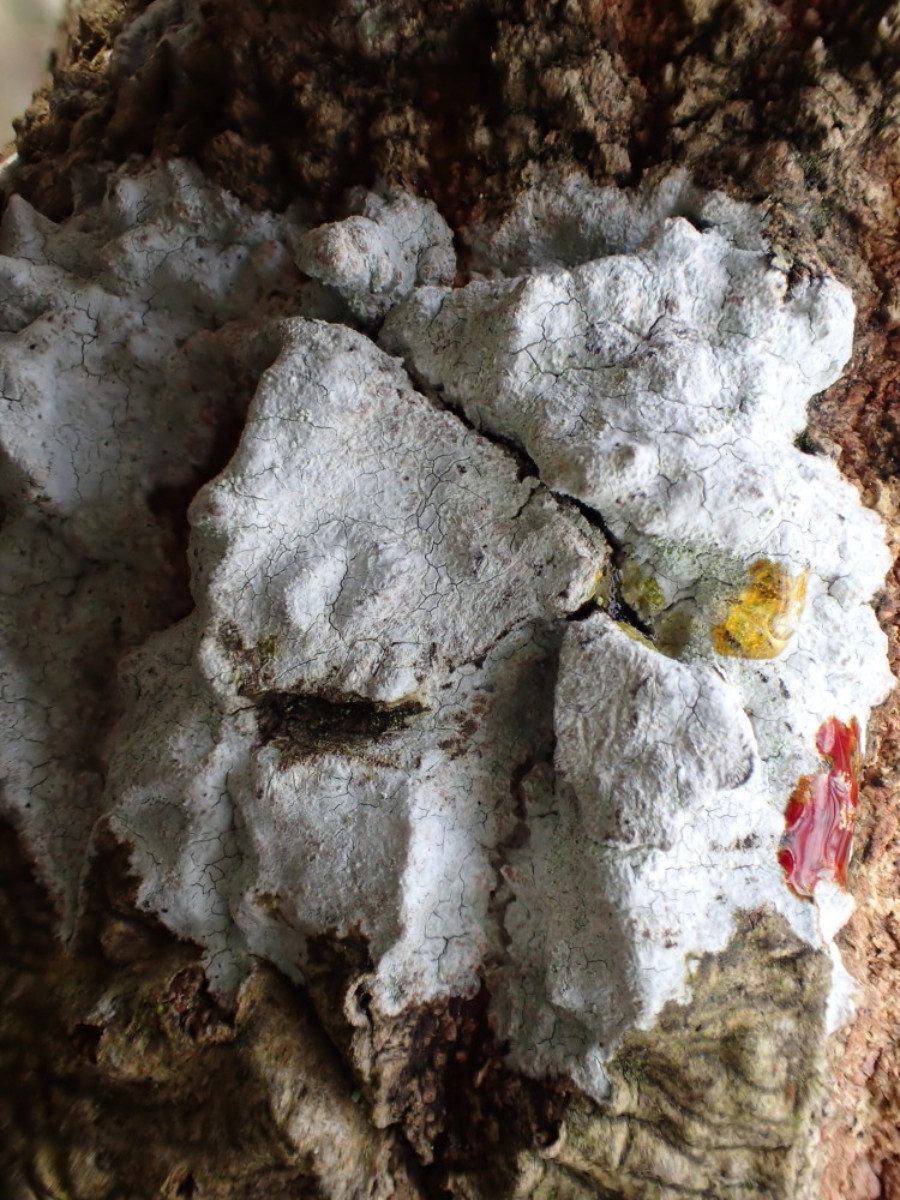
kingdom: Fungi
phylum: Ascomycota
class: Lecanoromycetes
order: Ostropales
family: Phlyctidaceae
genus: Phlyctis
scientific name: Phlyctis argena
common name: almindelig sølvlav
